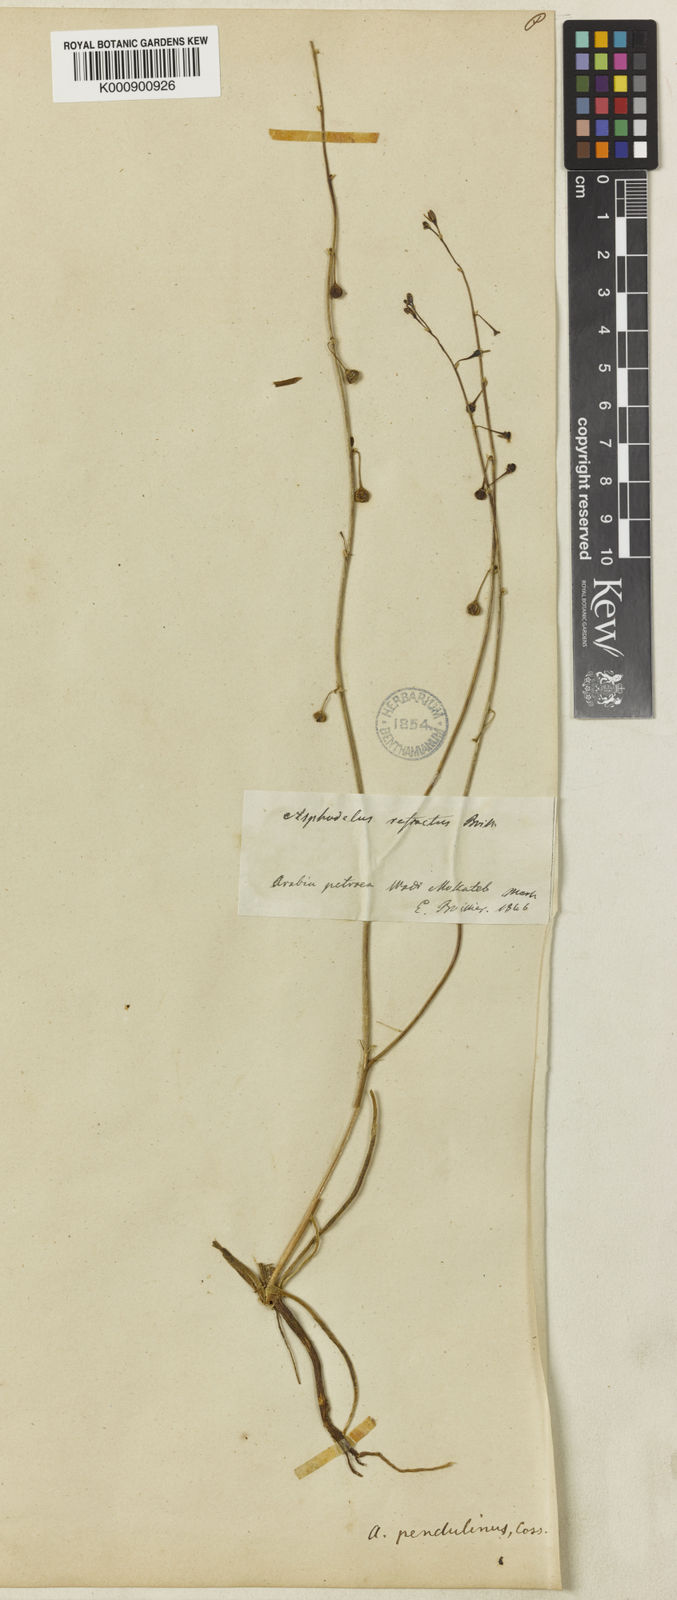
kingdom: Plantae
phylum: Tracheophyta
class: Liliopsida
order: Asparagales
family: Asphodelaceae
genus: Asphodelus
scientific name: Asphodelus refractus
